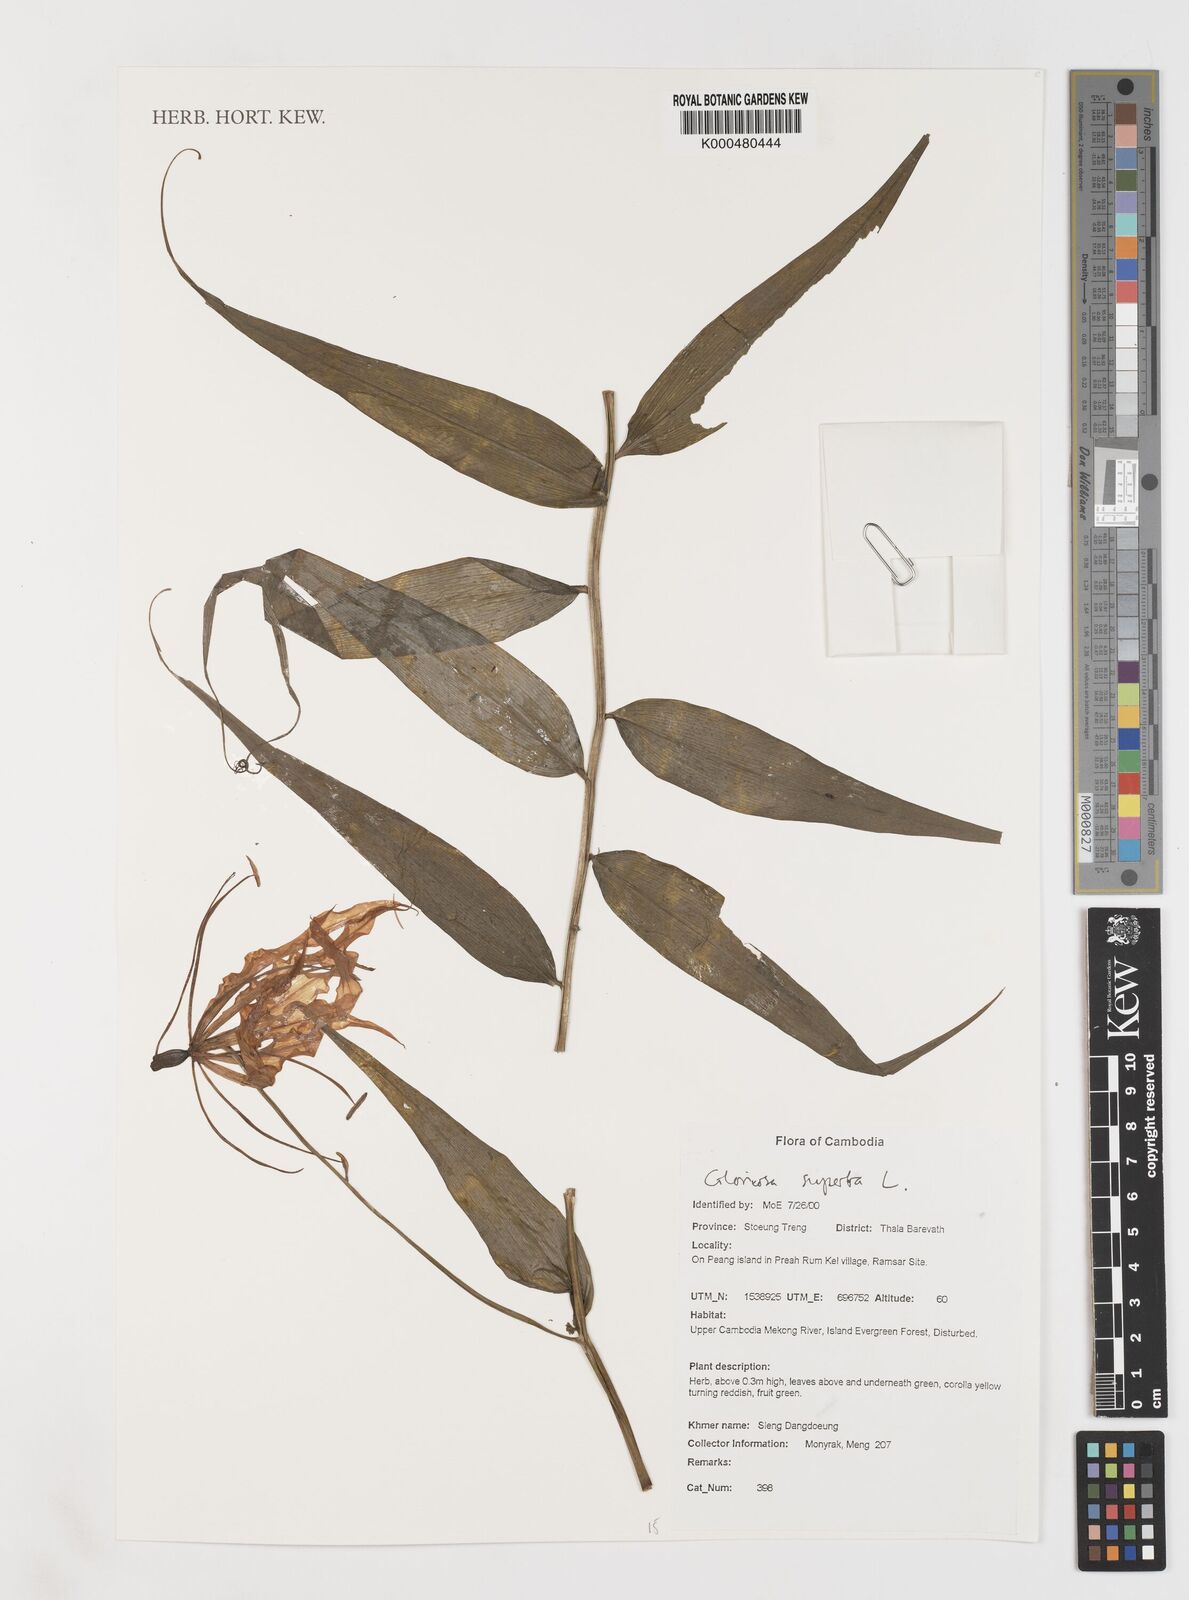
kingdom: Plantae
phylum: Tracheophyta
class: Liliopsida
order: Liliales
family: Colchicaceae
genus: Gloriosa
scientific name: Gloriosa superba
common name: Flame lily
